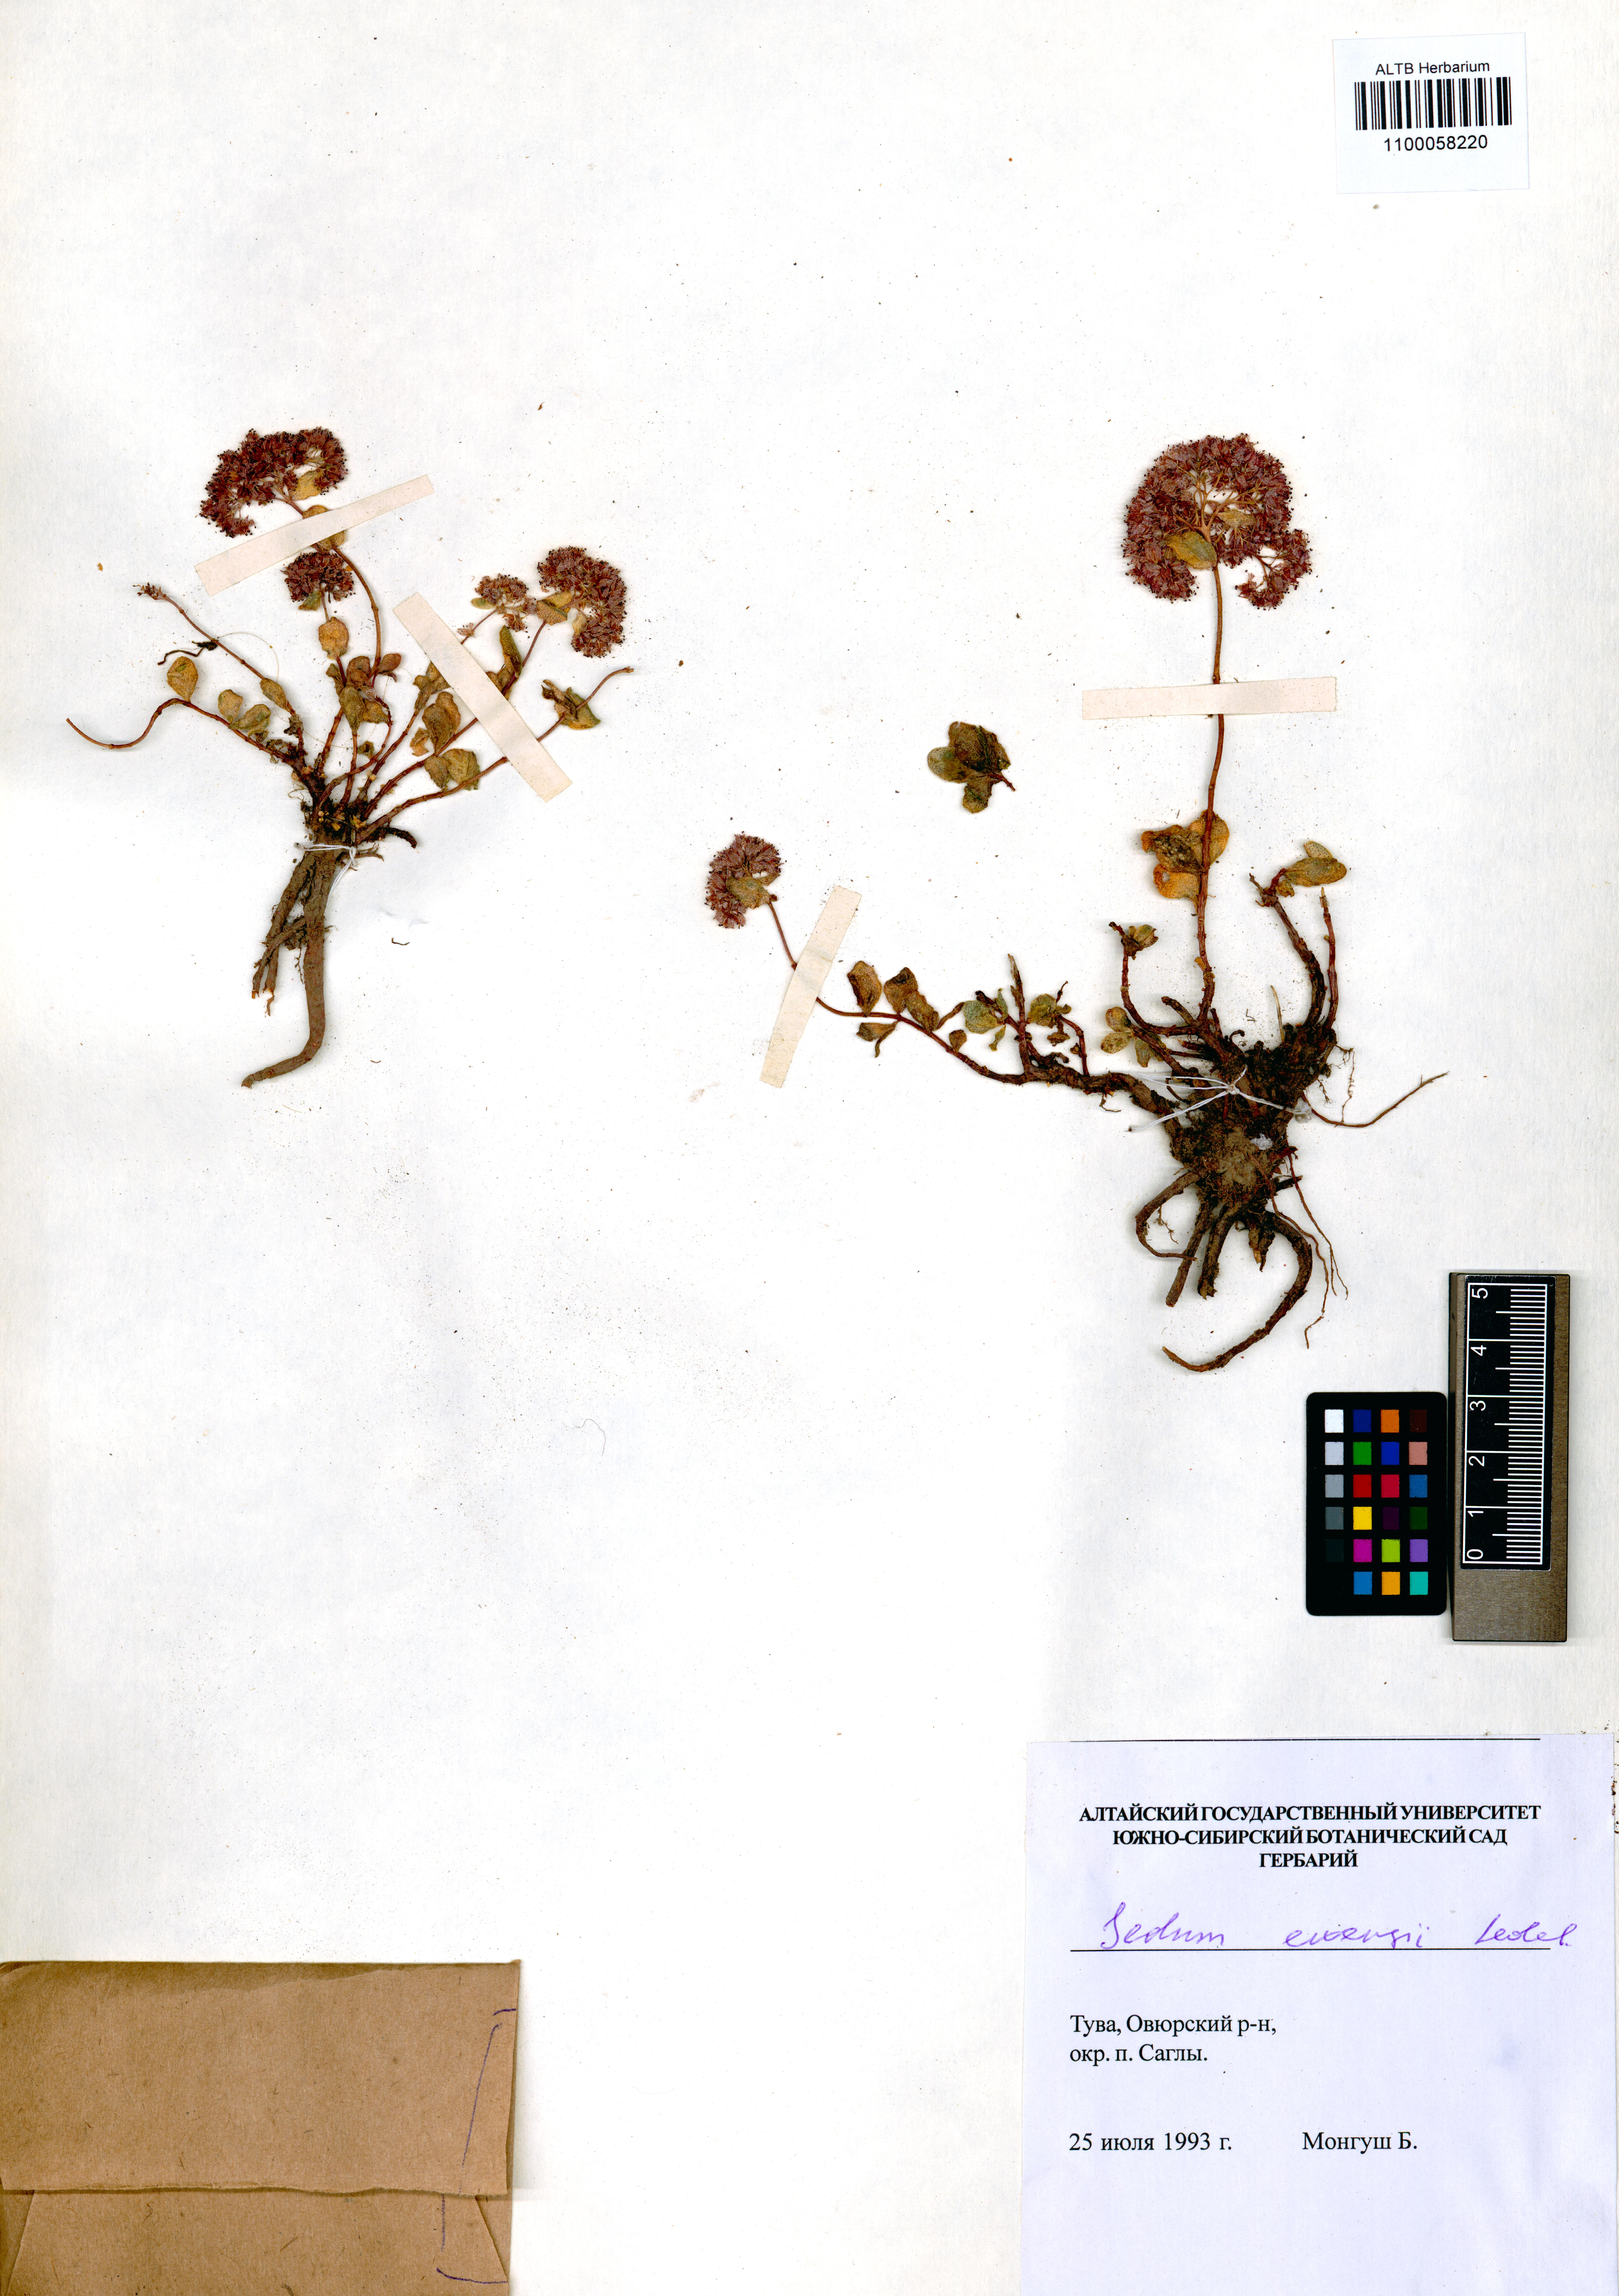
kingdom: Plantae
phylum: Tracheophyta
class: Magnoliopsida
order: Saxifragales
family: Crassulaceae
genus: Hylotelephium
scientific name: Hylotelephium ewersii
